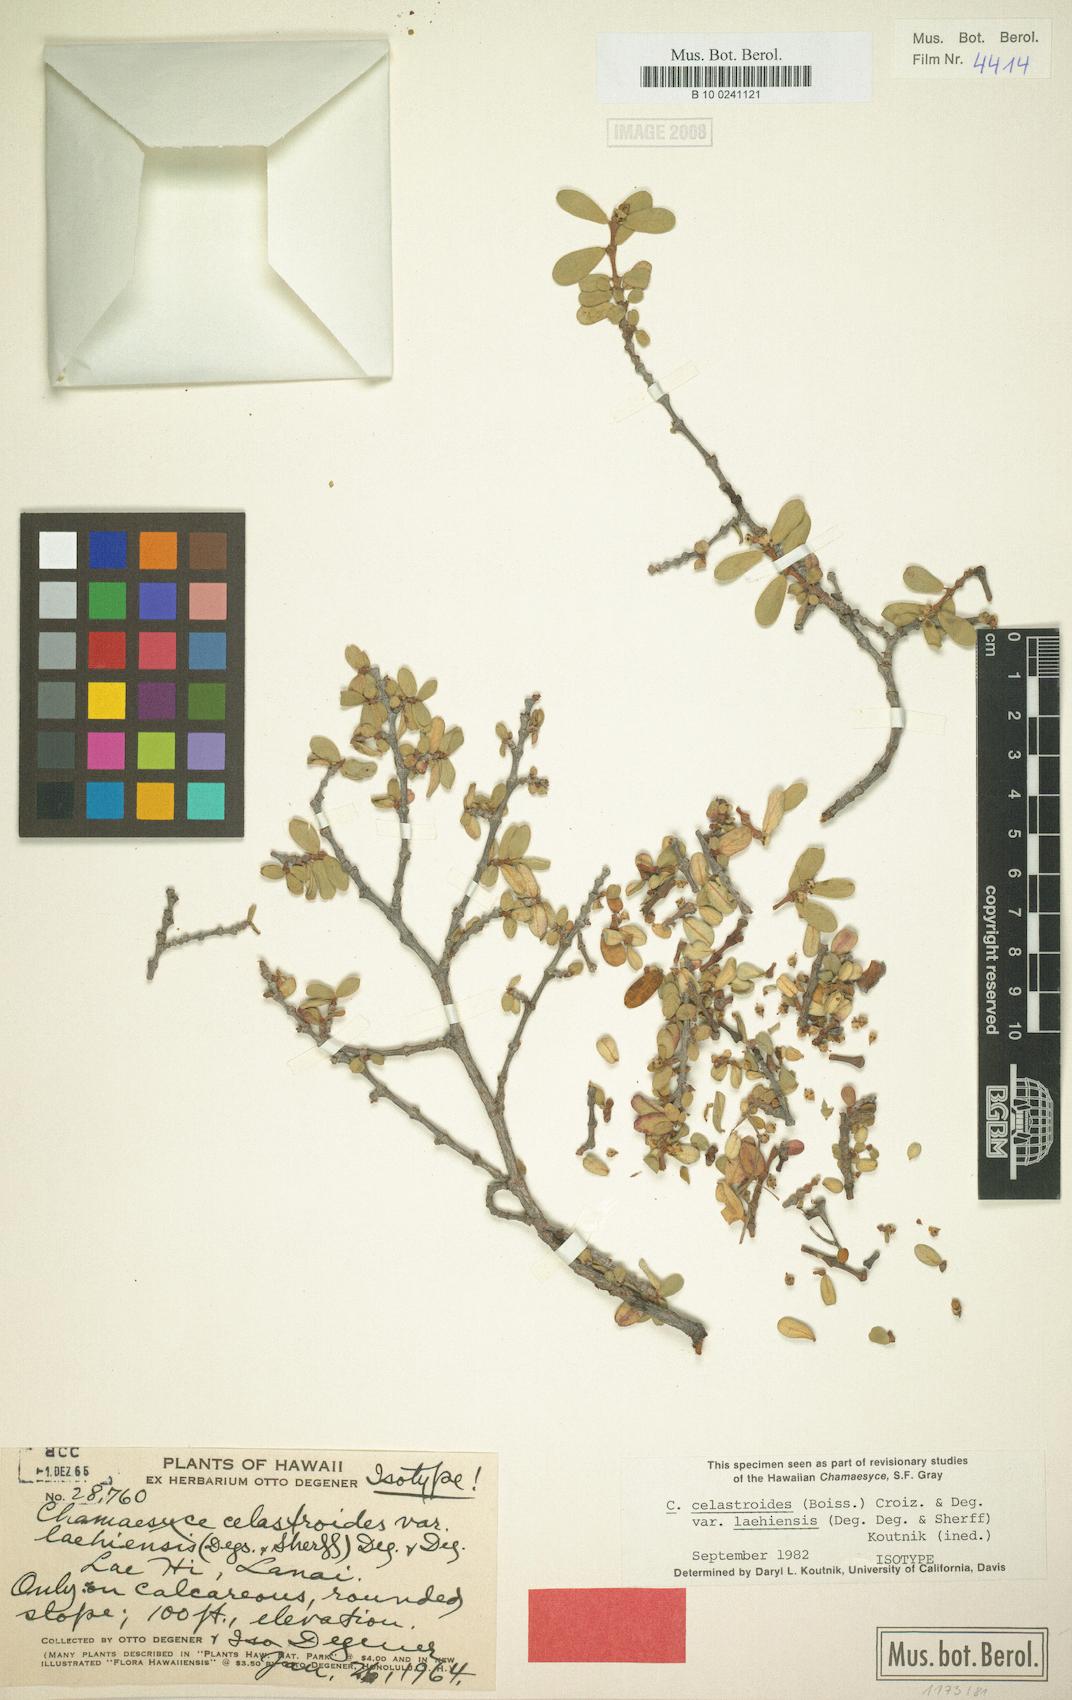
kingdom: Plantae
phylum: Tracheophyta
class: Magnoliopsida
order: Malpighiales
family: Euphorbiaceae
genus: Euphorbia
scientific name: Euphorbia celastroides
